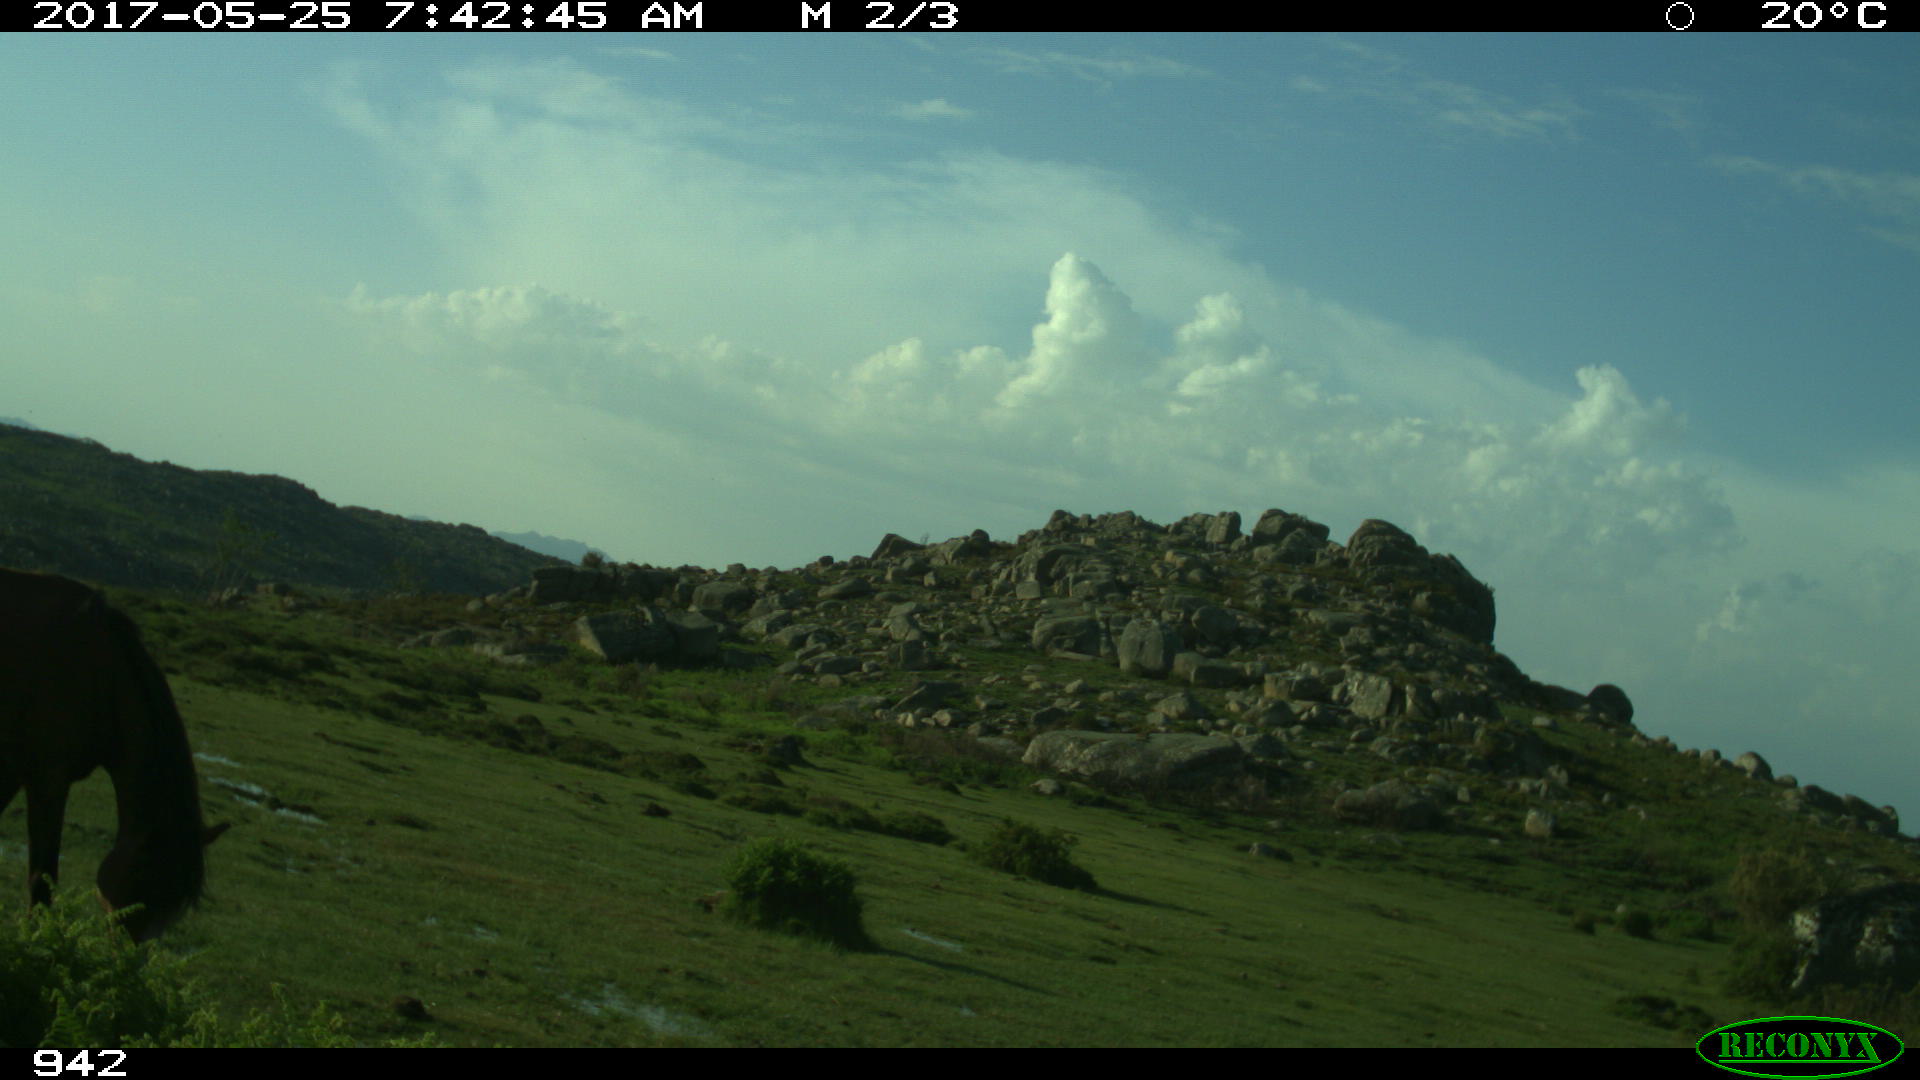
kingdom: Animalia
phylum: Chordata
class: Mammalia
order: Perissodactyla
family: Equidae
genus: Equus
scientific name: Equus caballus
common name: Horse
